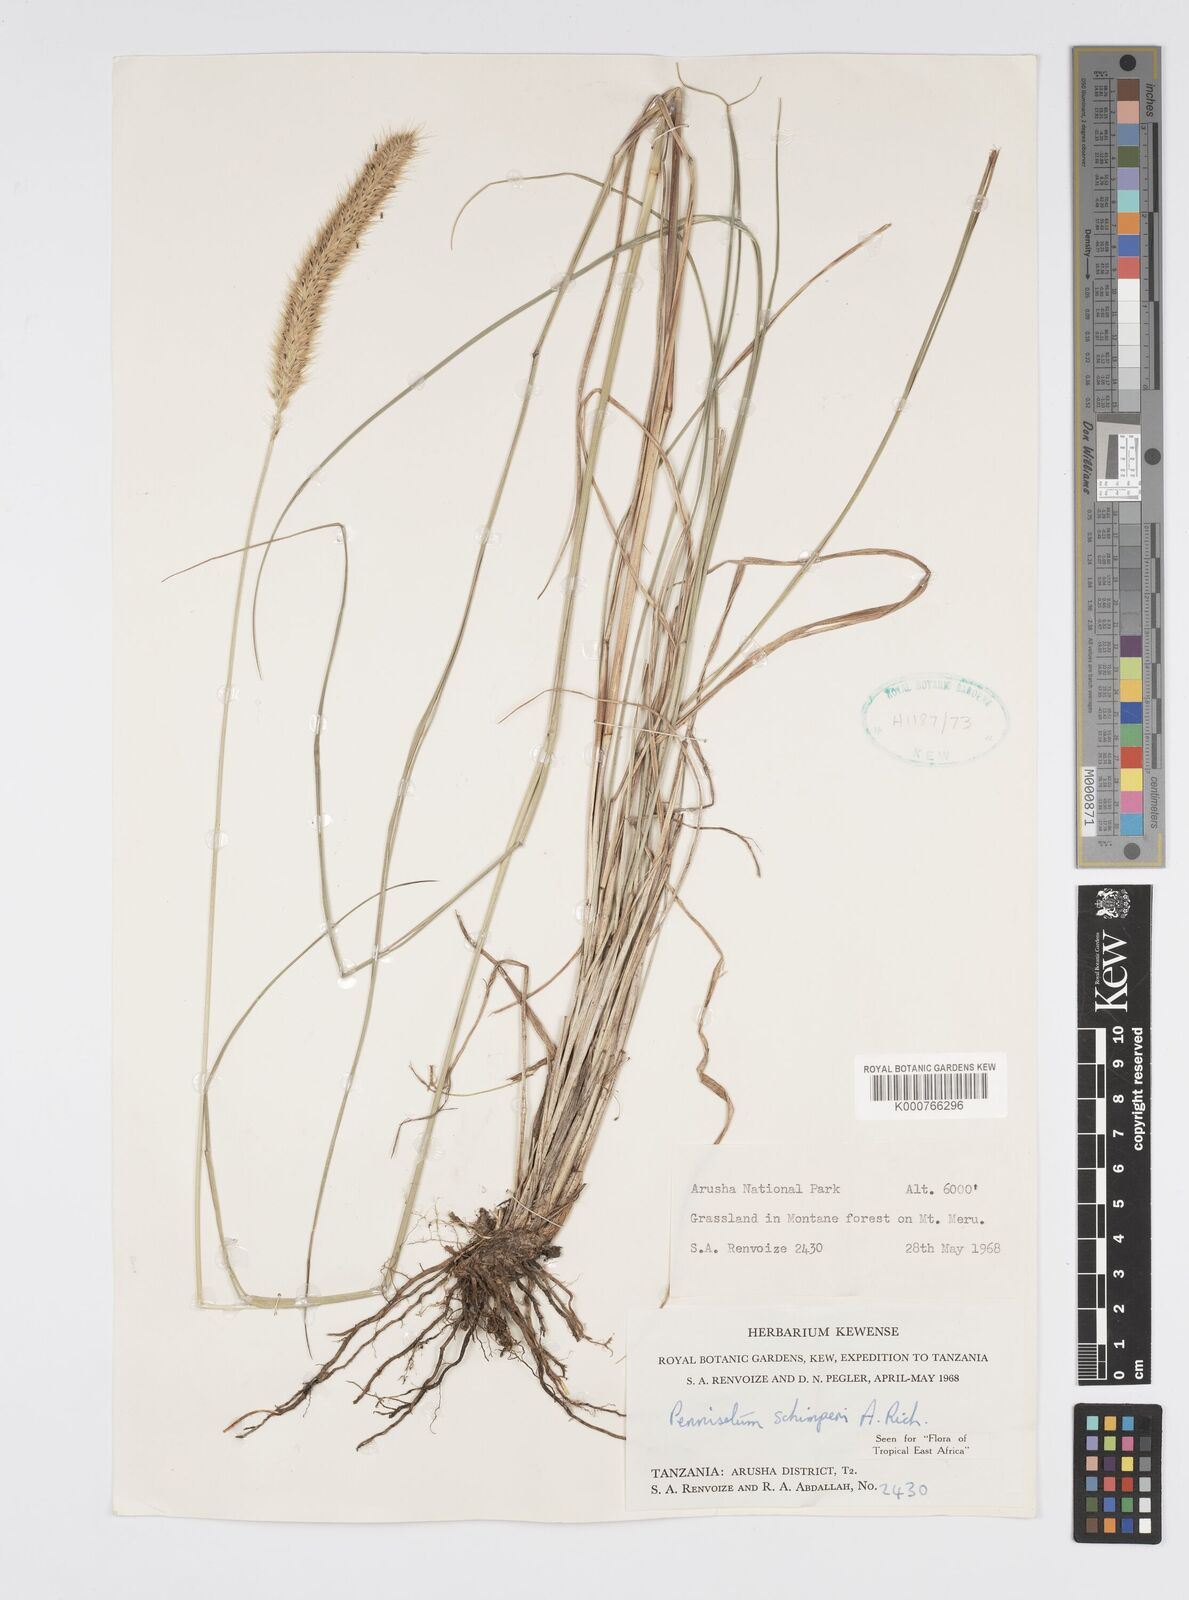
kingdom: Plantae
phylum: Tracheophyta
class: Liliopsida
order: Poales
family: Poaceae
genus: Cenchrus
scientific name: Cenchrus sphacelatus
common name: Bulgras
